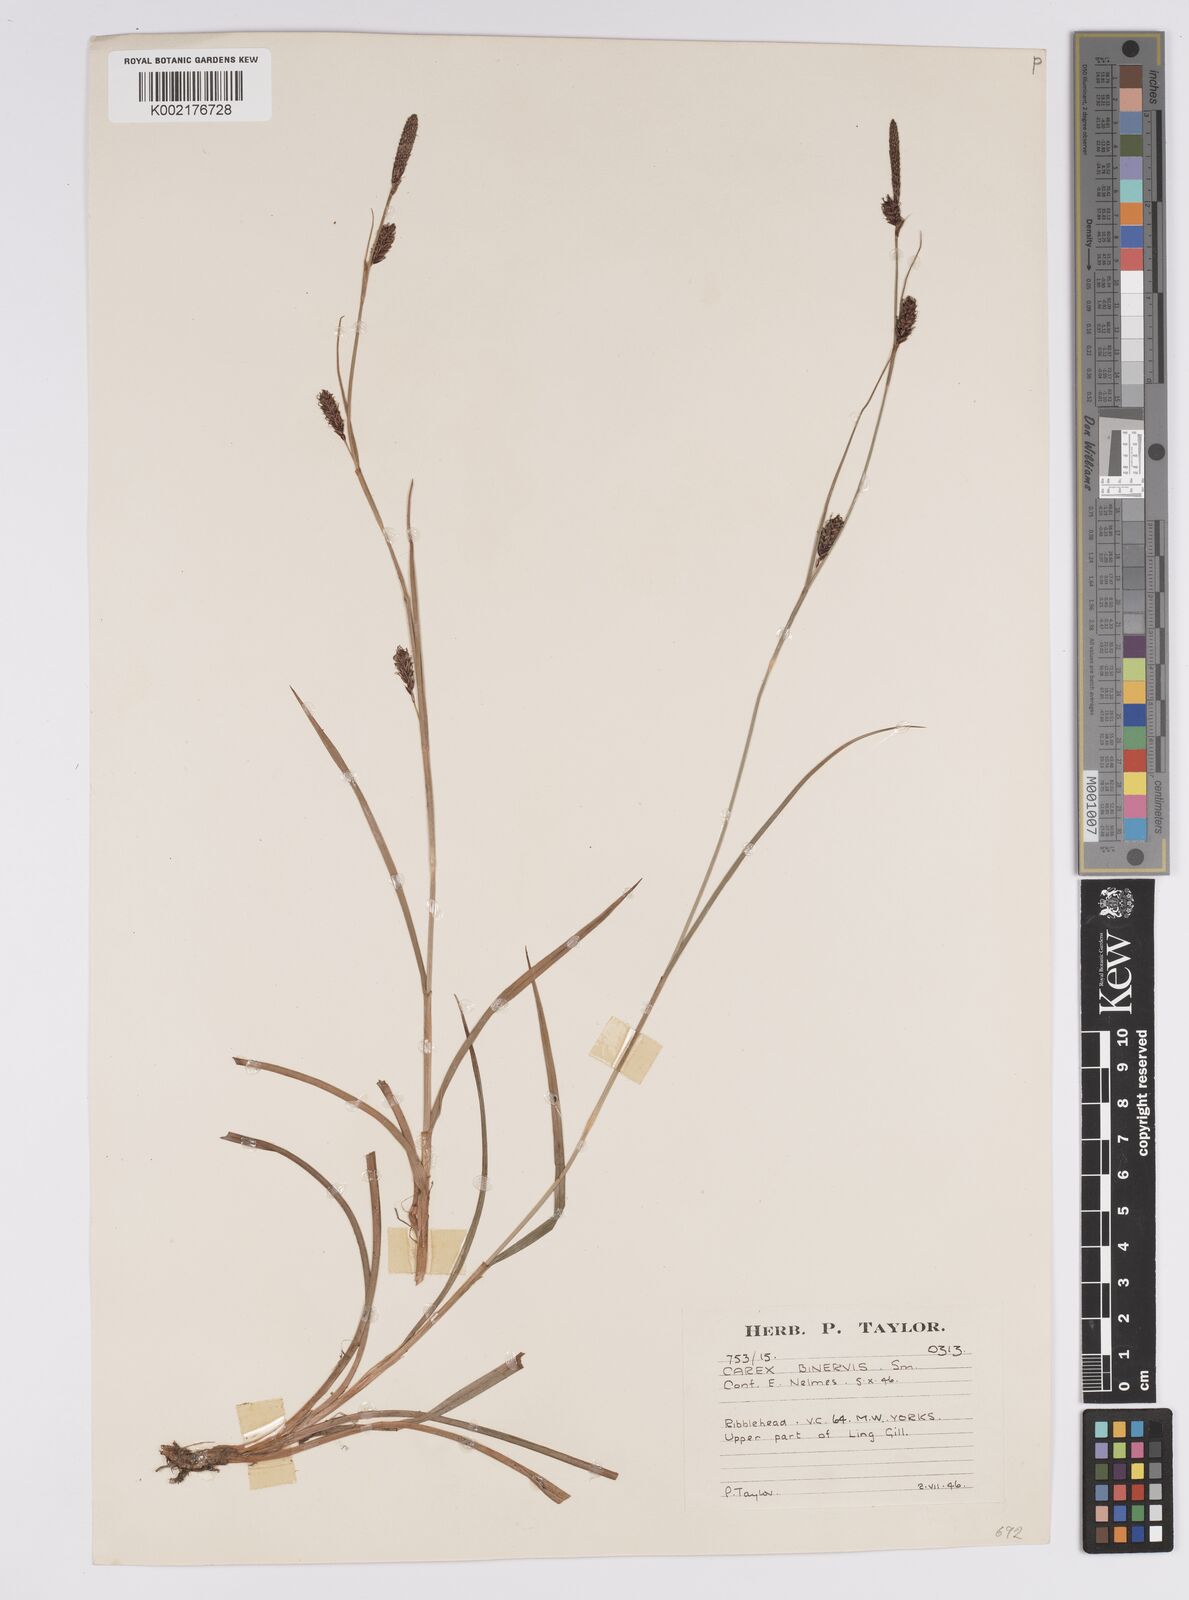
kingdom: Plantae
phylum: Tracheophyta
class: Liliopsida
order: Poales
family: Cyperaceae
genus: Carex
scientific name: Carex binervis
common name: Green-ribbed sedge
